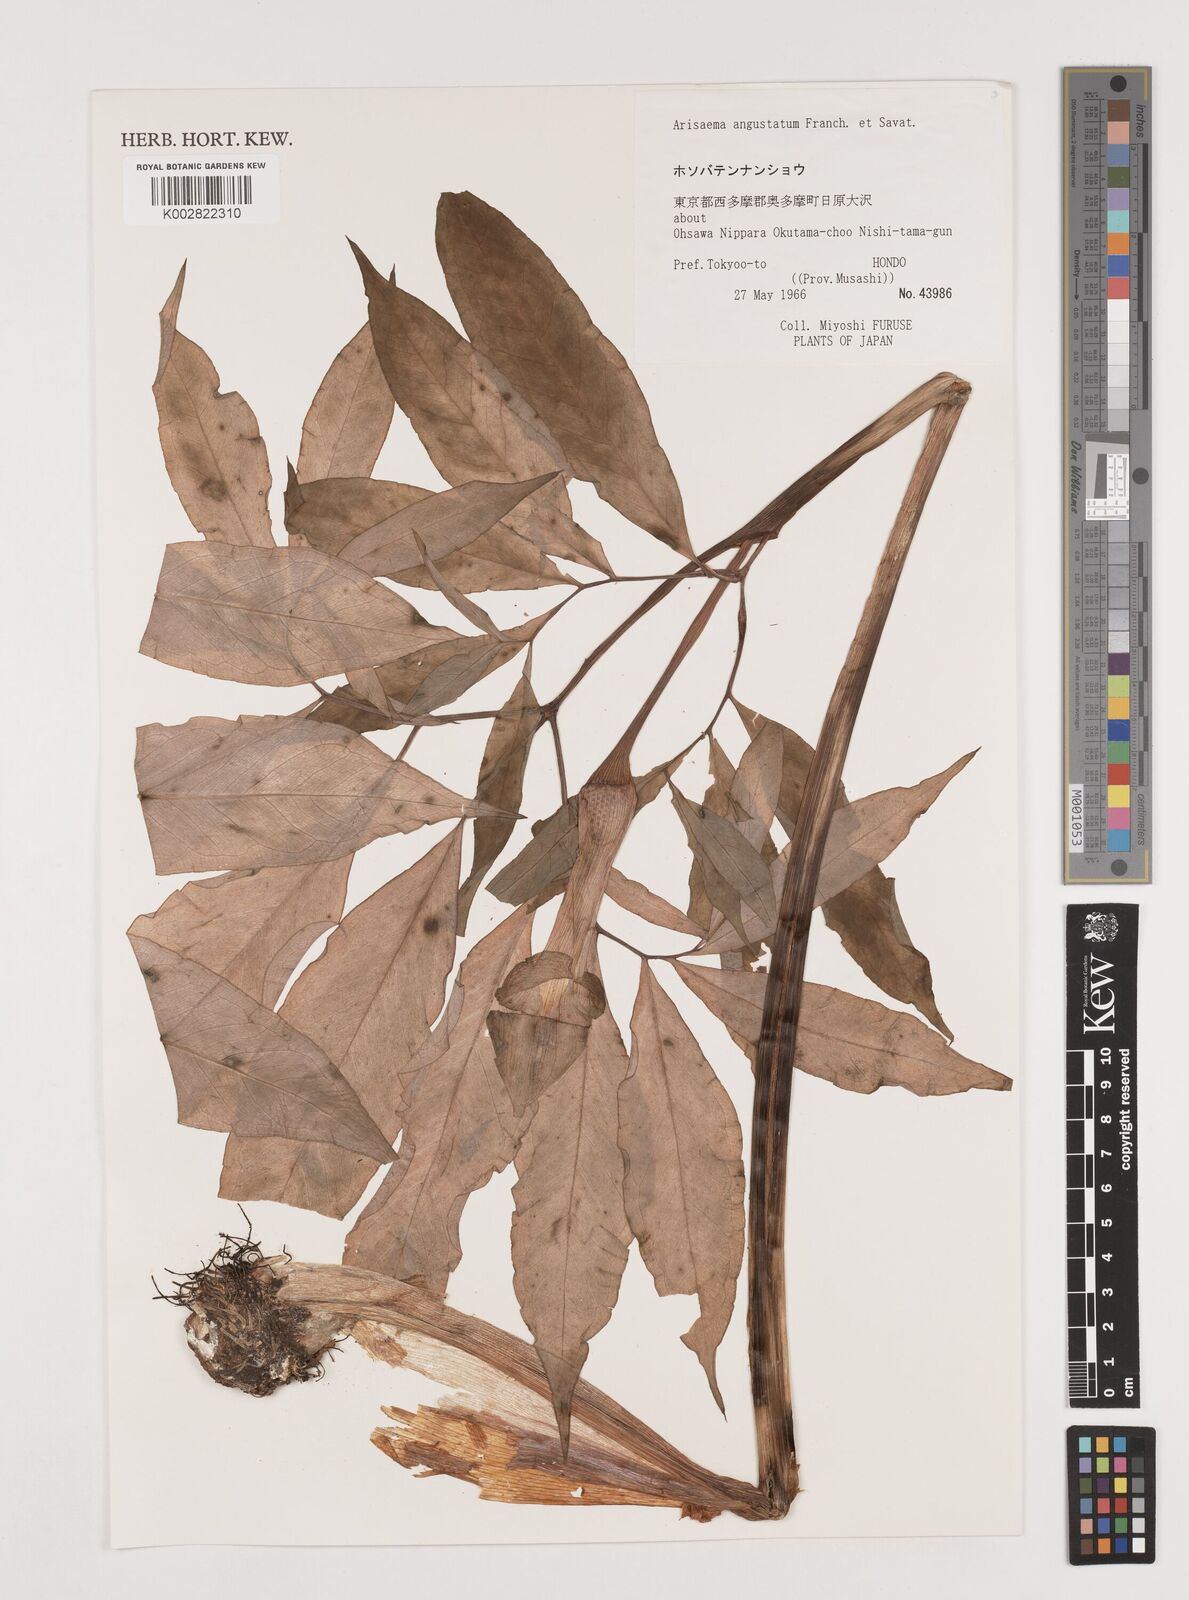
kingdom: Plantae
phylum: Tracheophyta
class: Liliopsida
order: Alismatales
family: Araceae
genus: Arisaema
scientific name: Arisaema angustatum
